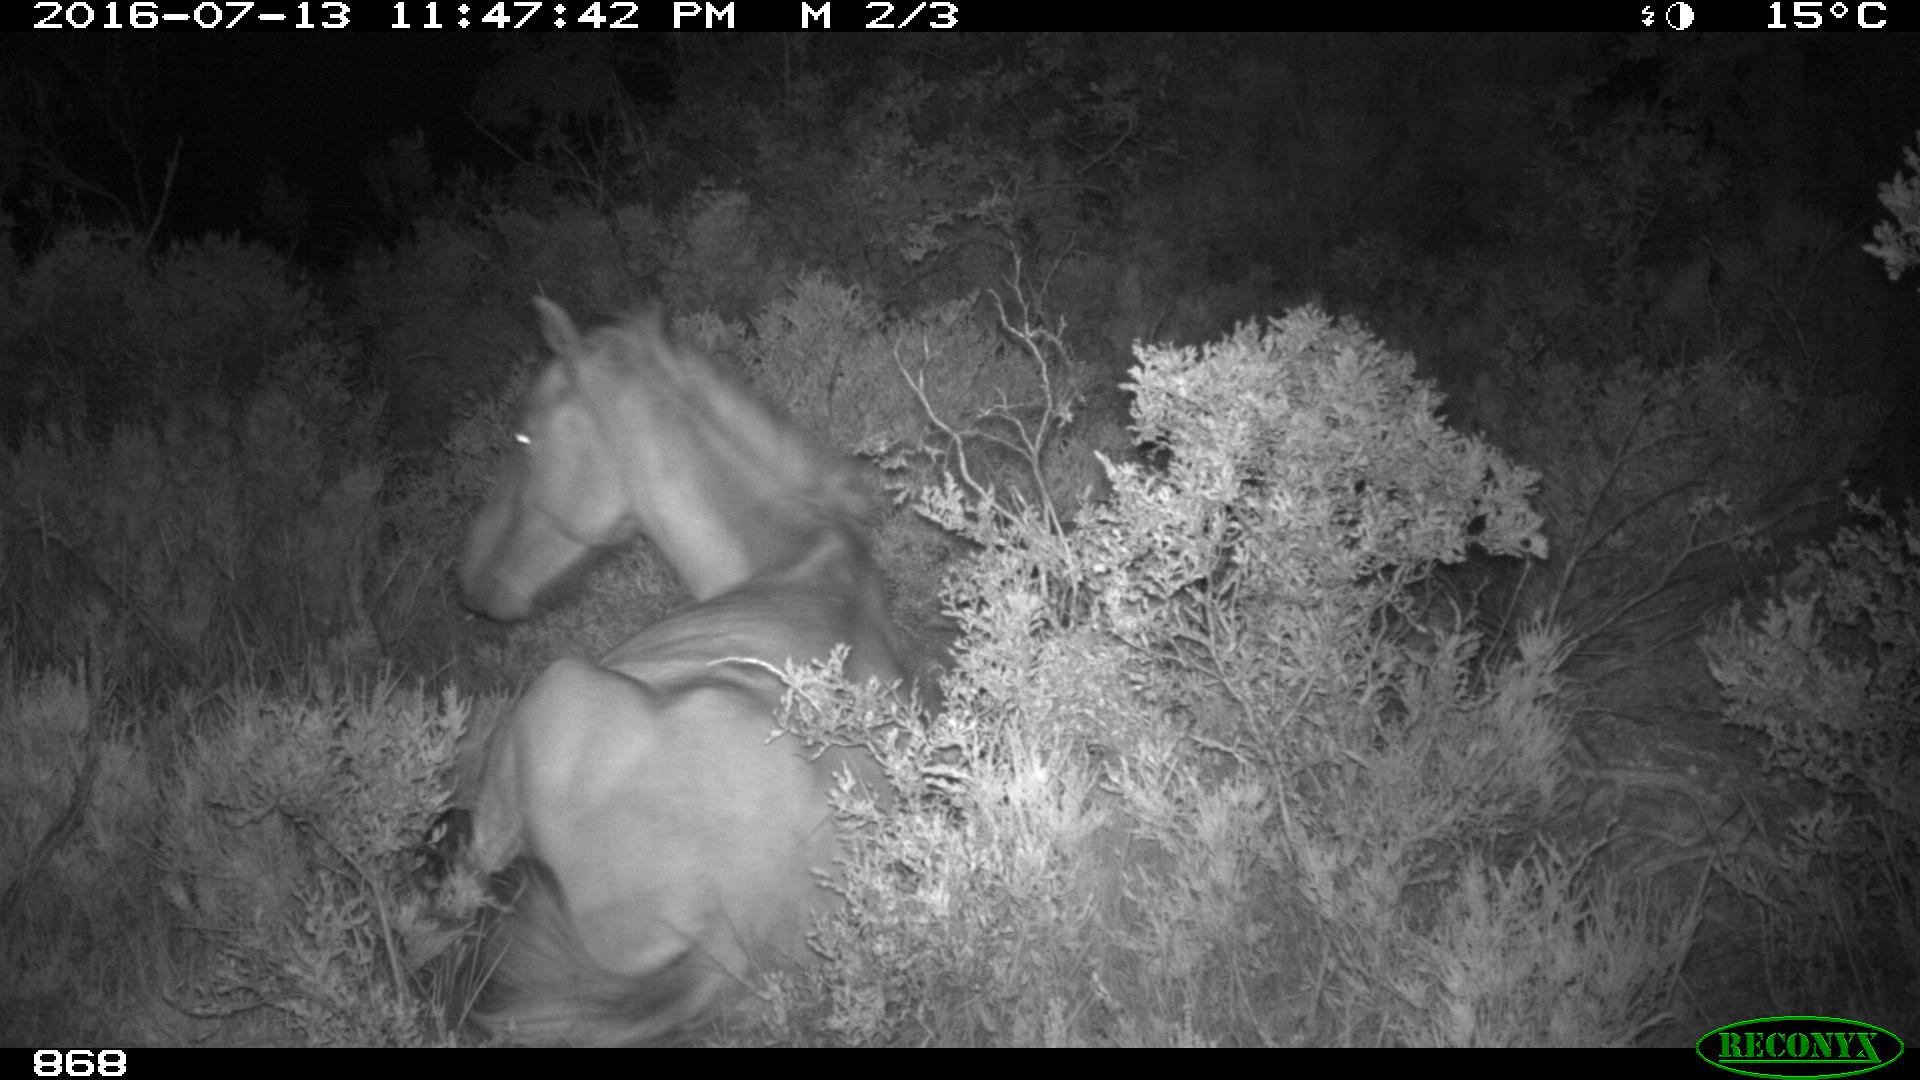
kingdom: Animalia
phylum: Chordata
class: Mammalia
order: Perissodactyla
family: Equidae
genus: Equus
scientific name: Equus caballus
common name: Horse
